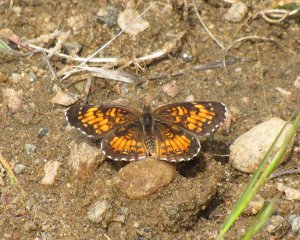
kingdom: Animalia
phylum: Arthropoda
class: Insecta
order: Lepidoptera
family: Nymphalidae
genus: Chlosyne
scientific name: Chlosyne harrisii
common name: Harris's Checkerspot
